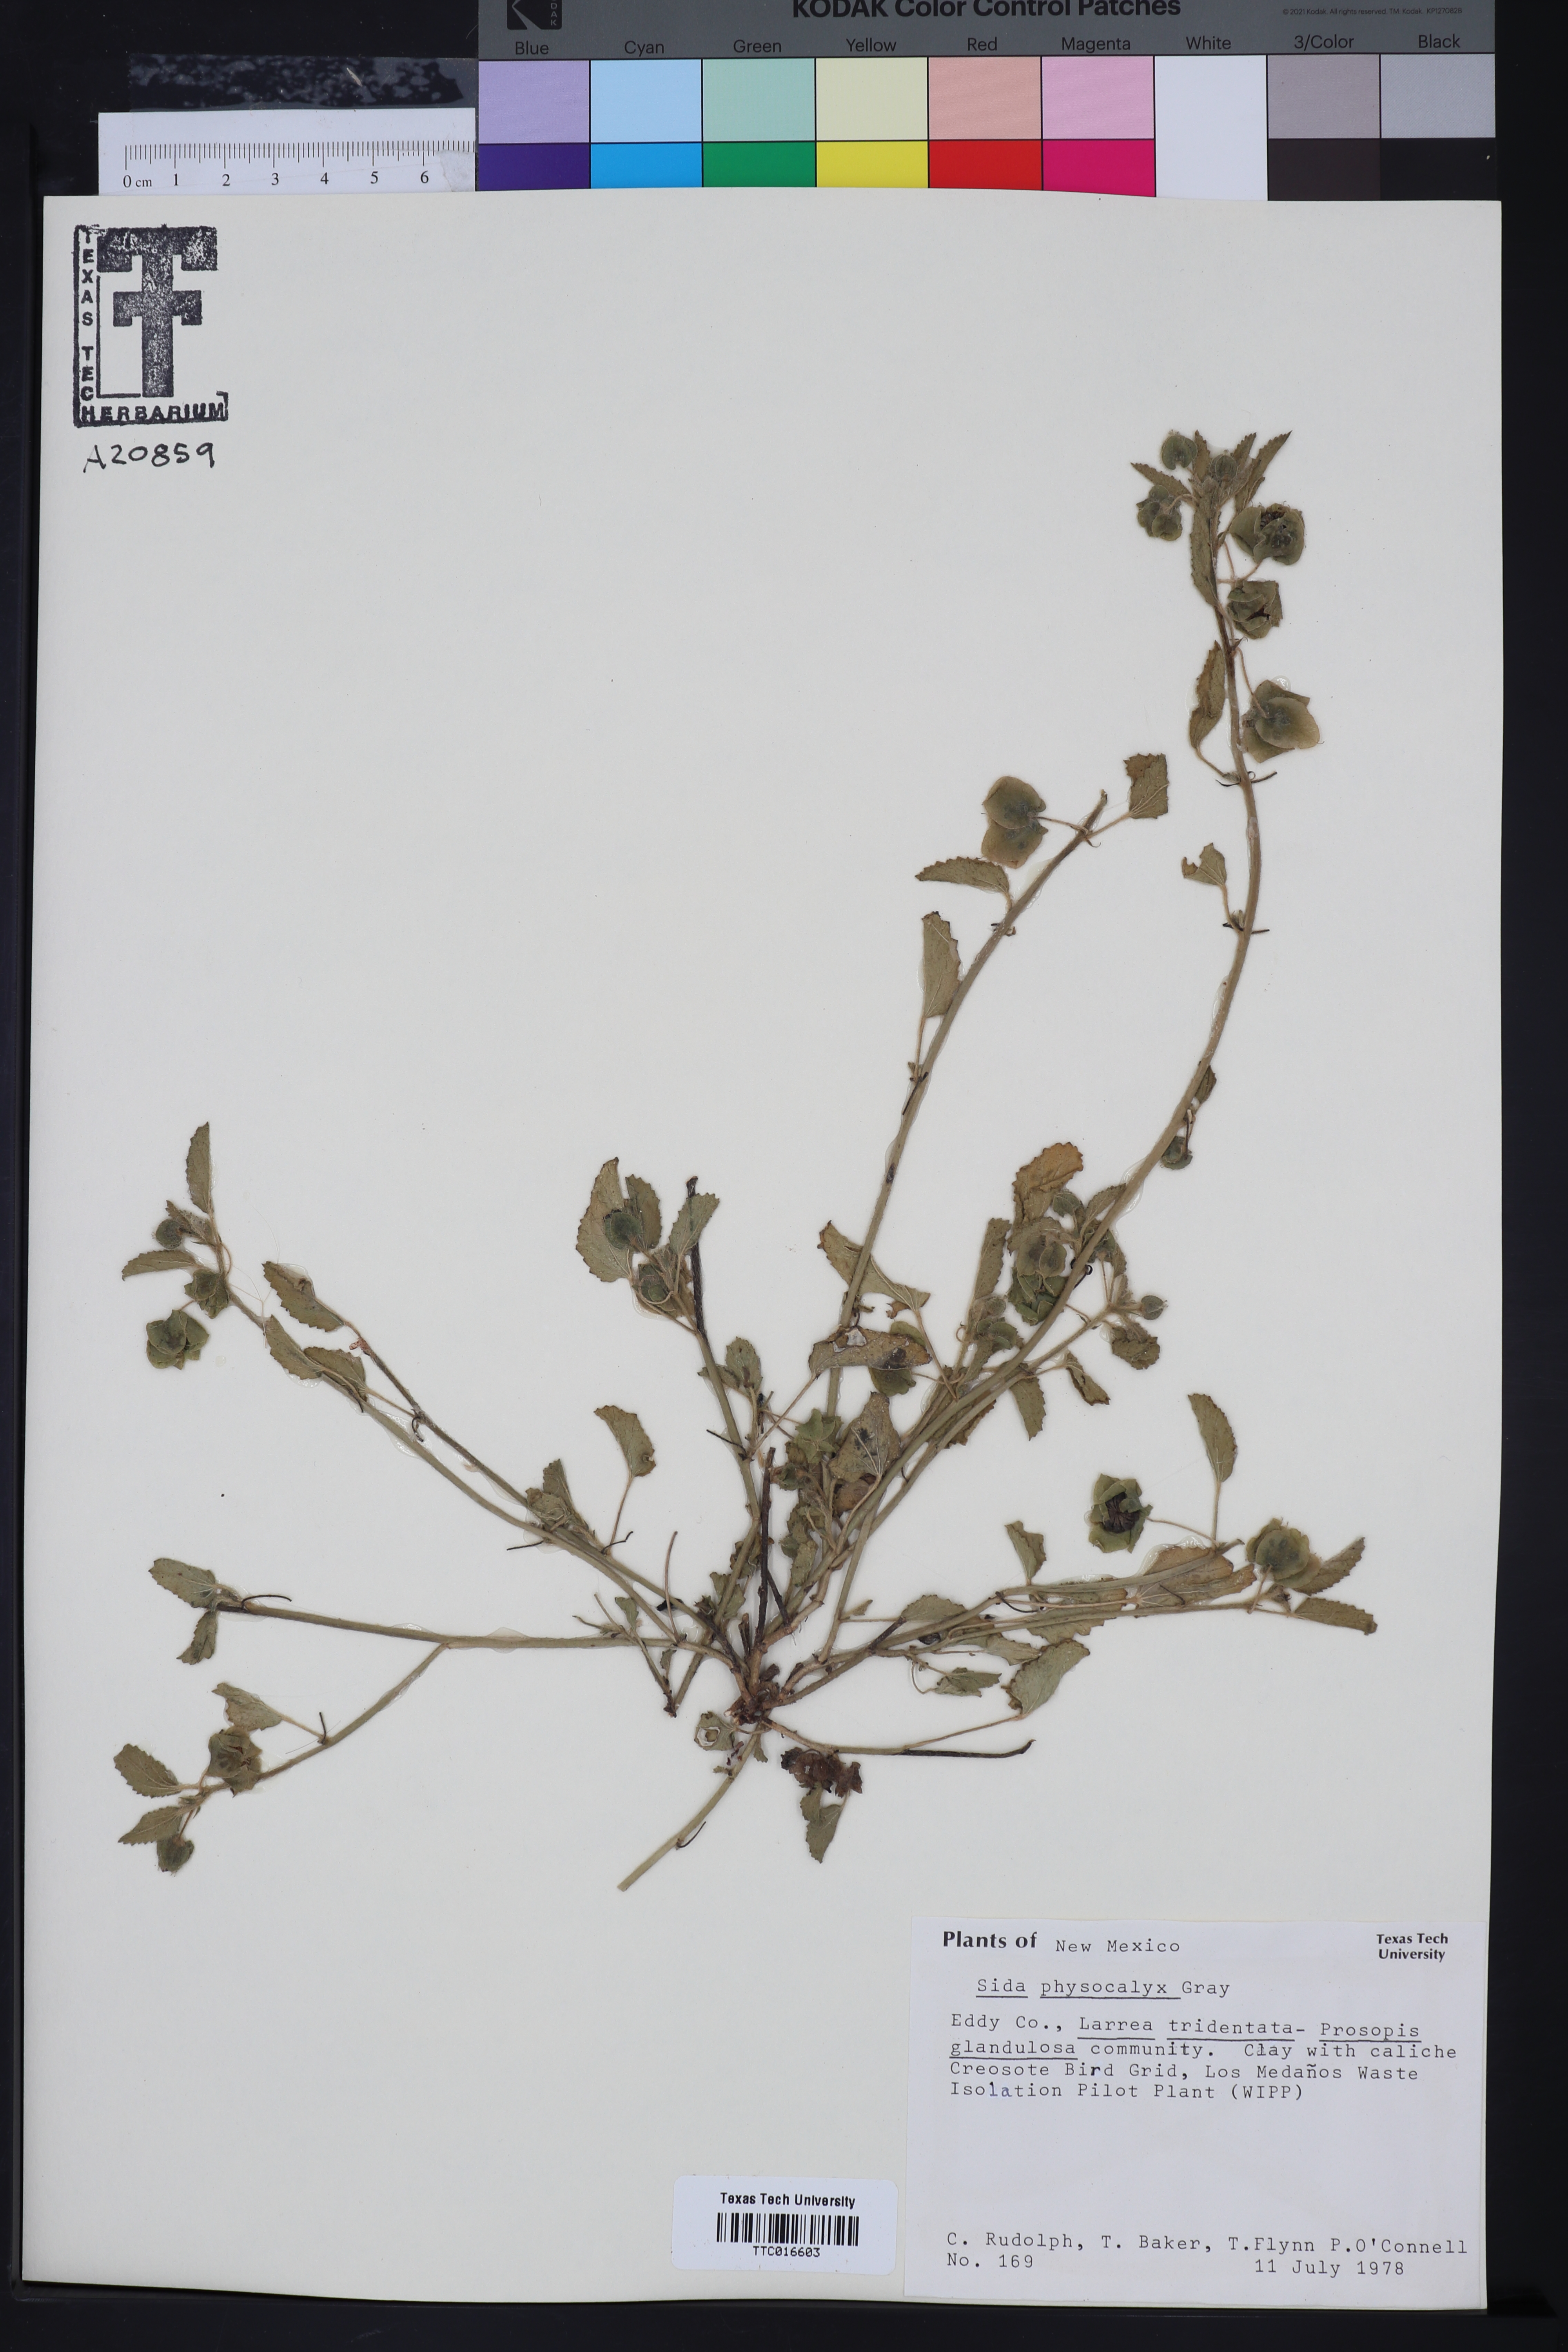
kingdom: Plantae
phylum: Tracheophyta
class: Magnoliopsida
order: Malvales
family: Malvaceae
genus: Rhynchosida
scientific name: Rhynchosida physocalyx
